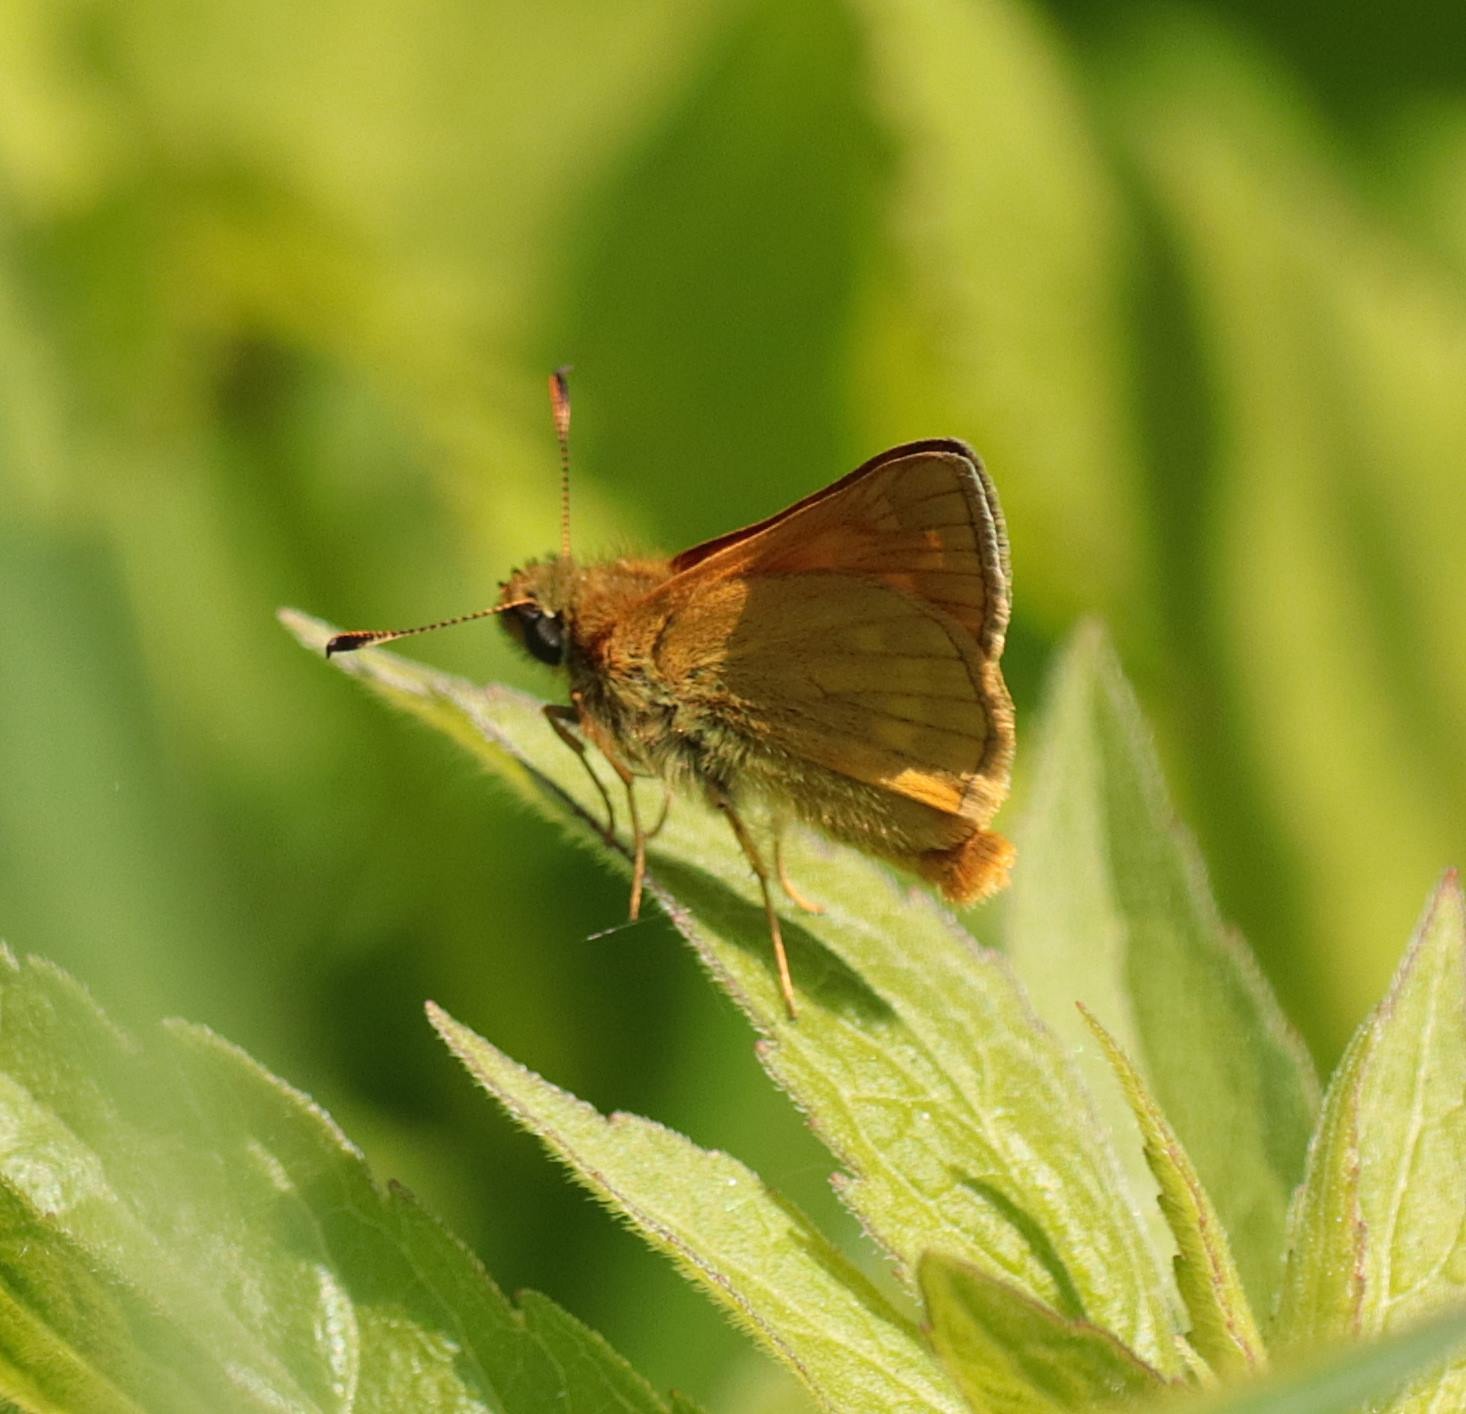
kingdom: Animalia
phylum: Arthropoda
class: Insecta
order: Lepidoptera
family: Hesperiidae
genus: Ochlodes
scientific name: Ochlodes venata
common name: Stor bredpande
